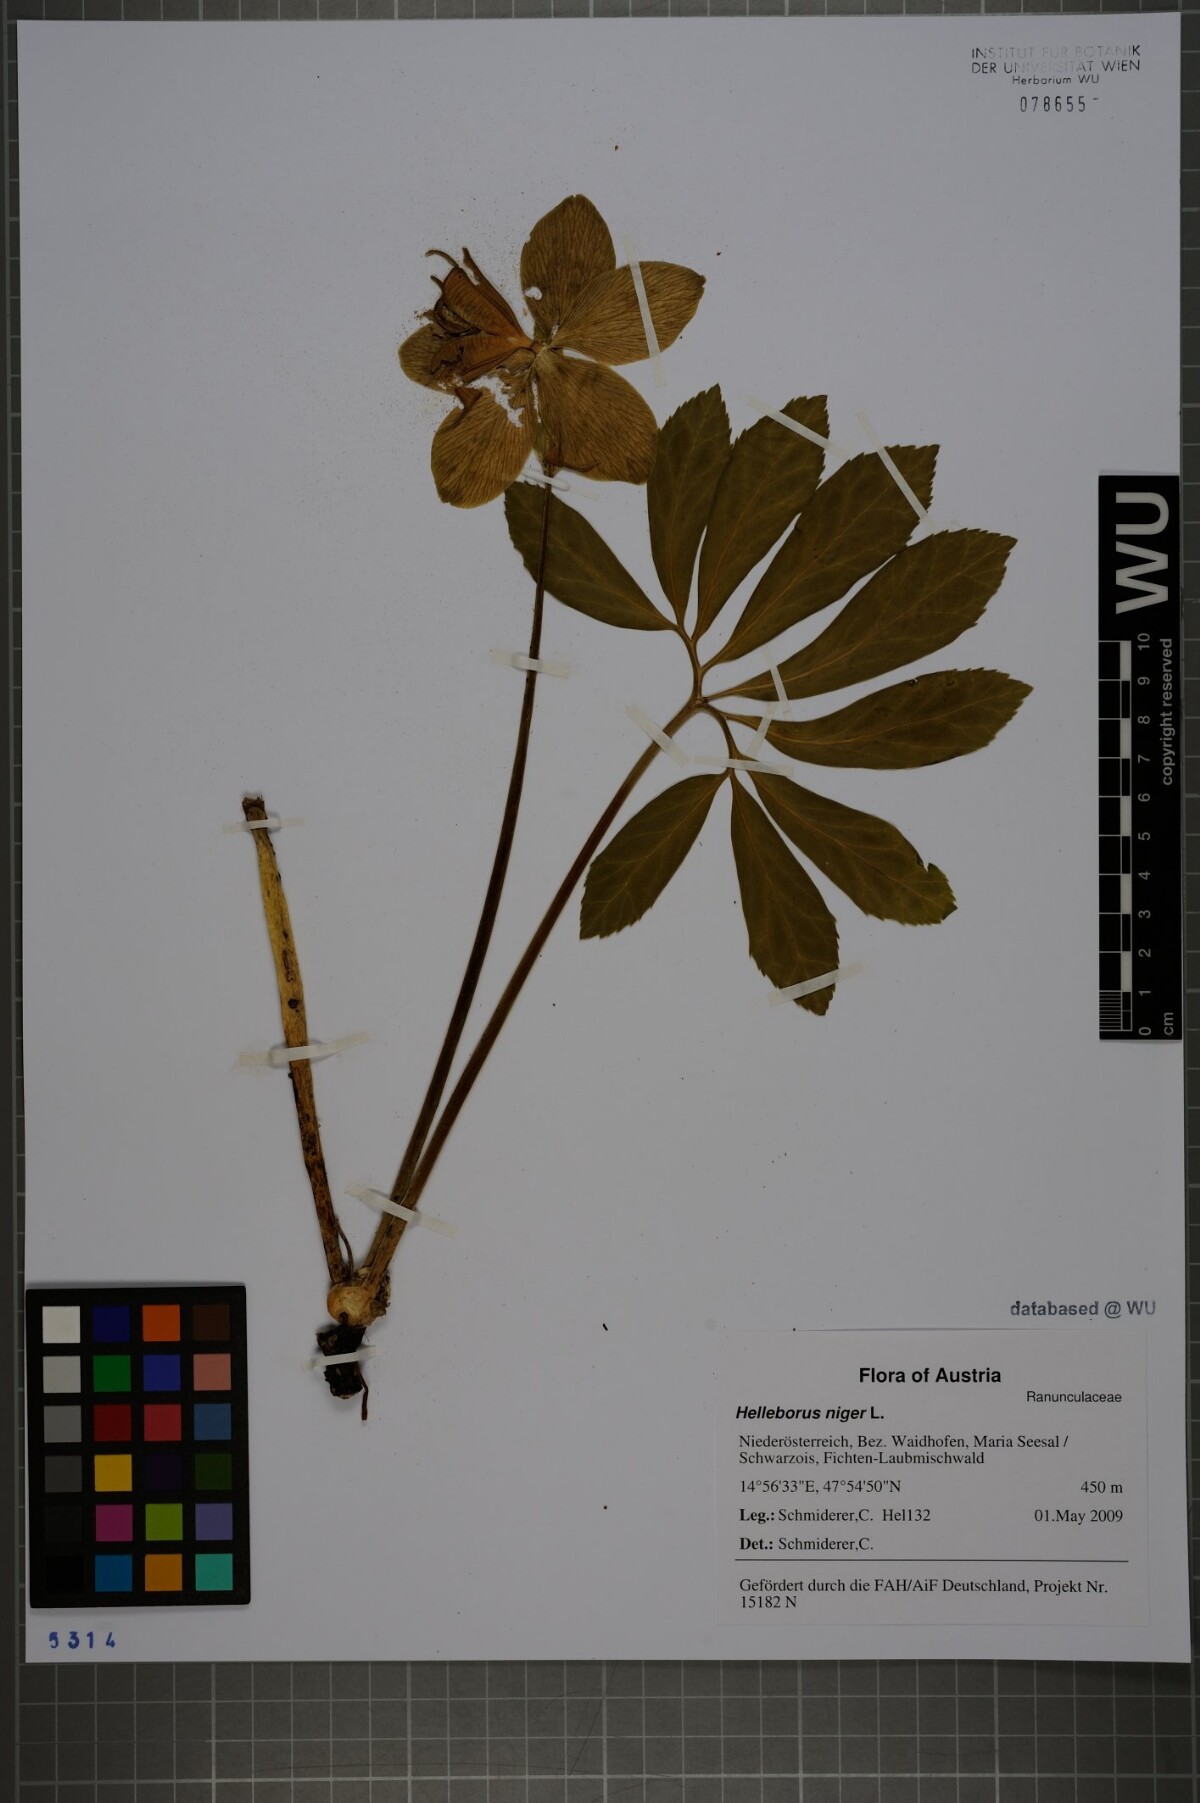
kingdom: Plantae
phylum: Tracheophyta
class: Magnoliopsida
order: Ranunculales
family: Ranunculaceae
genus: Helleborus
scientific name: Helleborus niger
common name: Black hellebore
